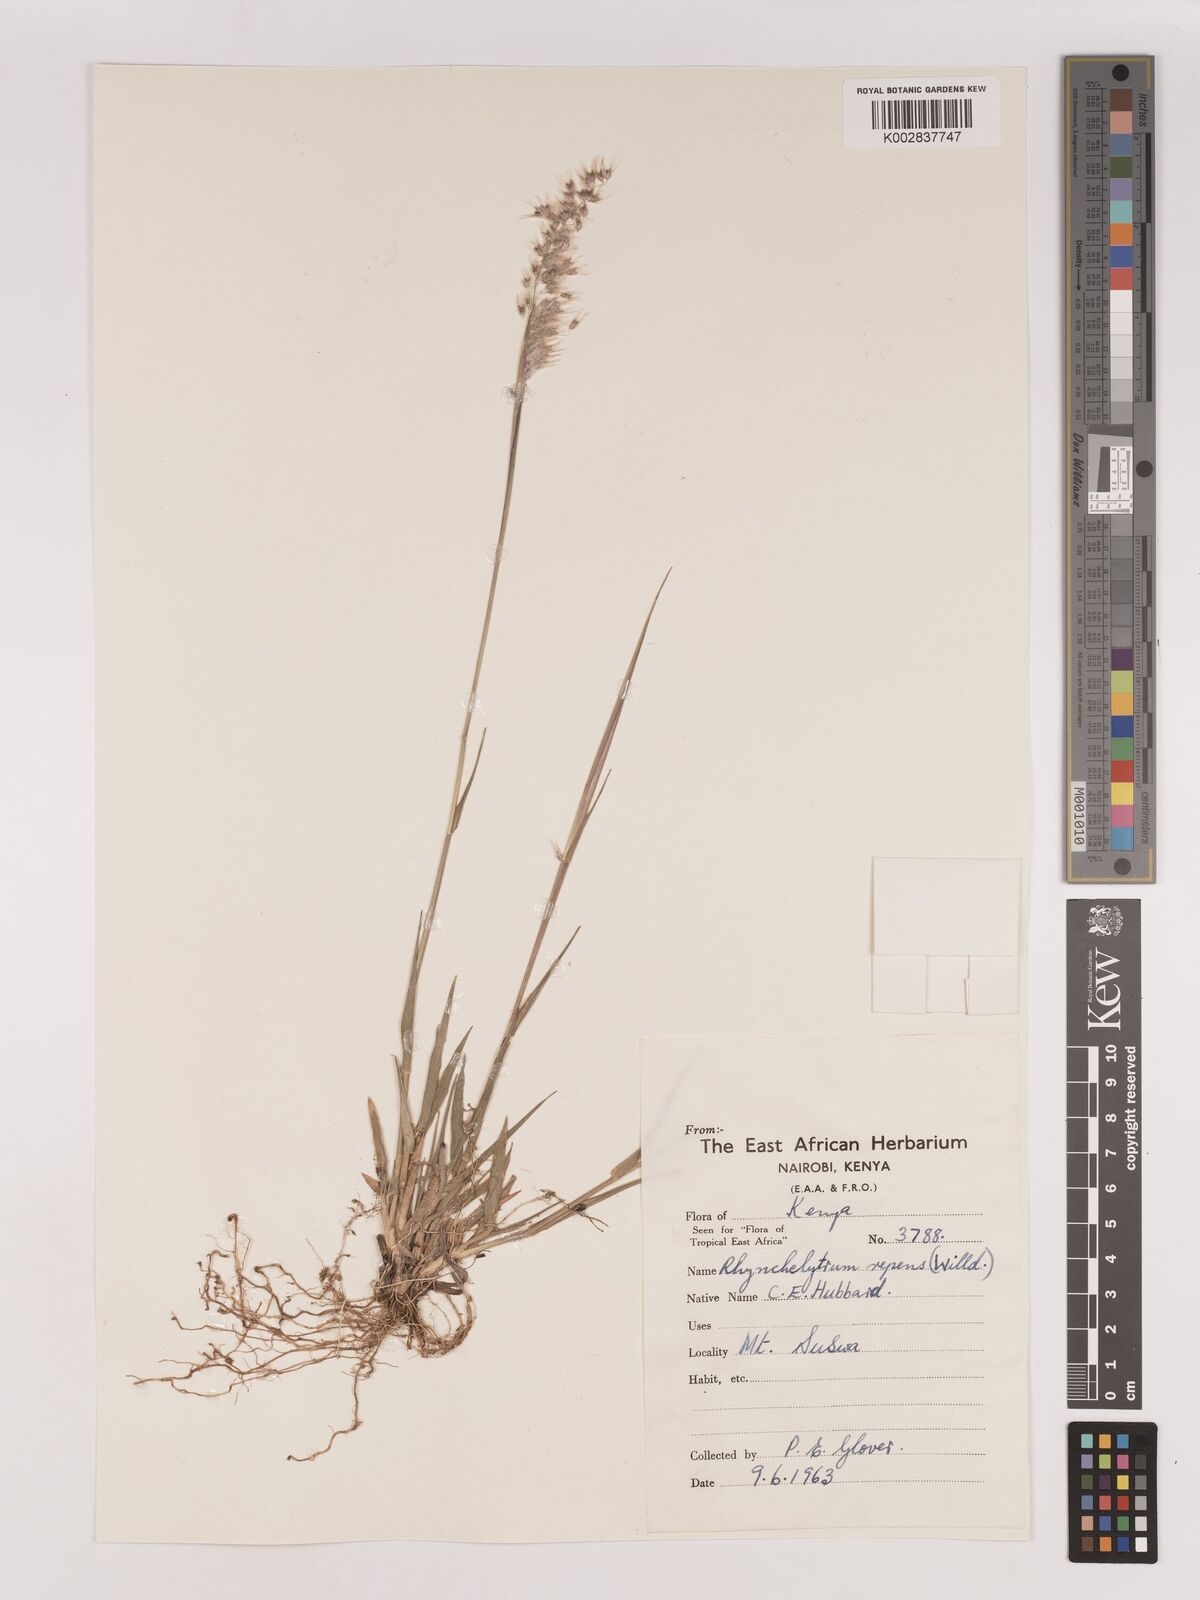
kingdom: Plantae
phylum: Tracheophyta
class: Liliopsida
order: Poales
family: Poaceae
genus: Melinis
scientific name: Melinis repens
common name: Rose natal grass
